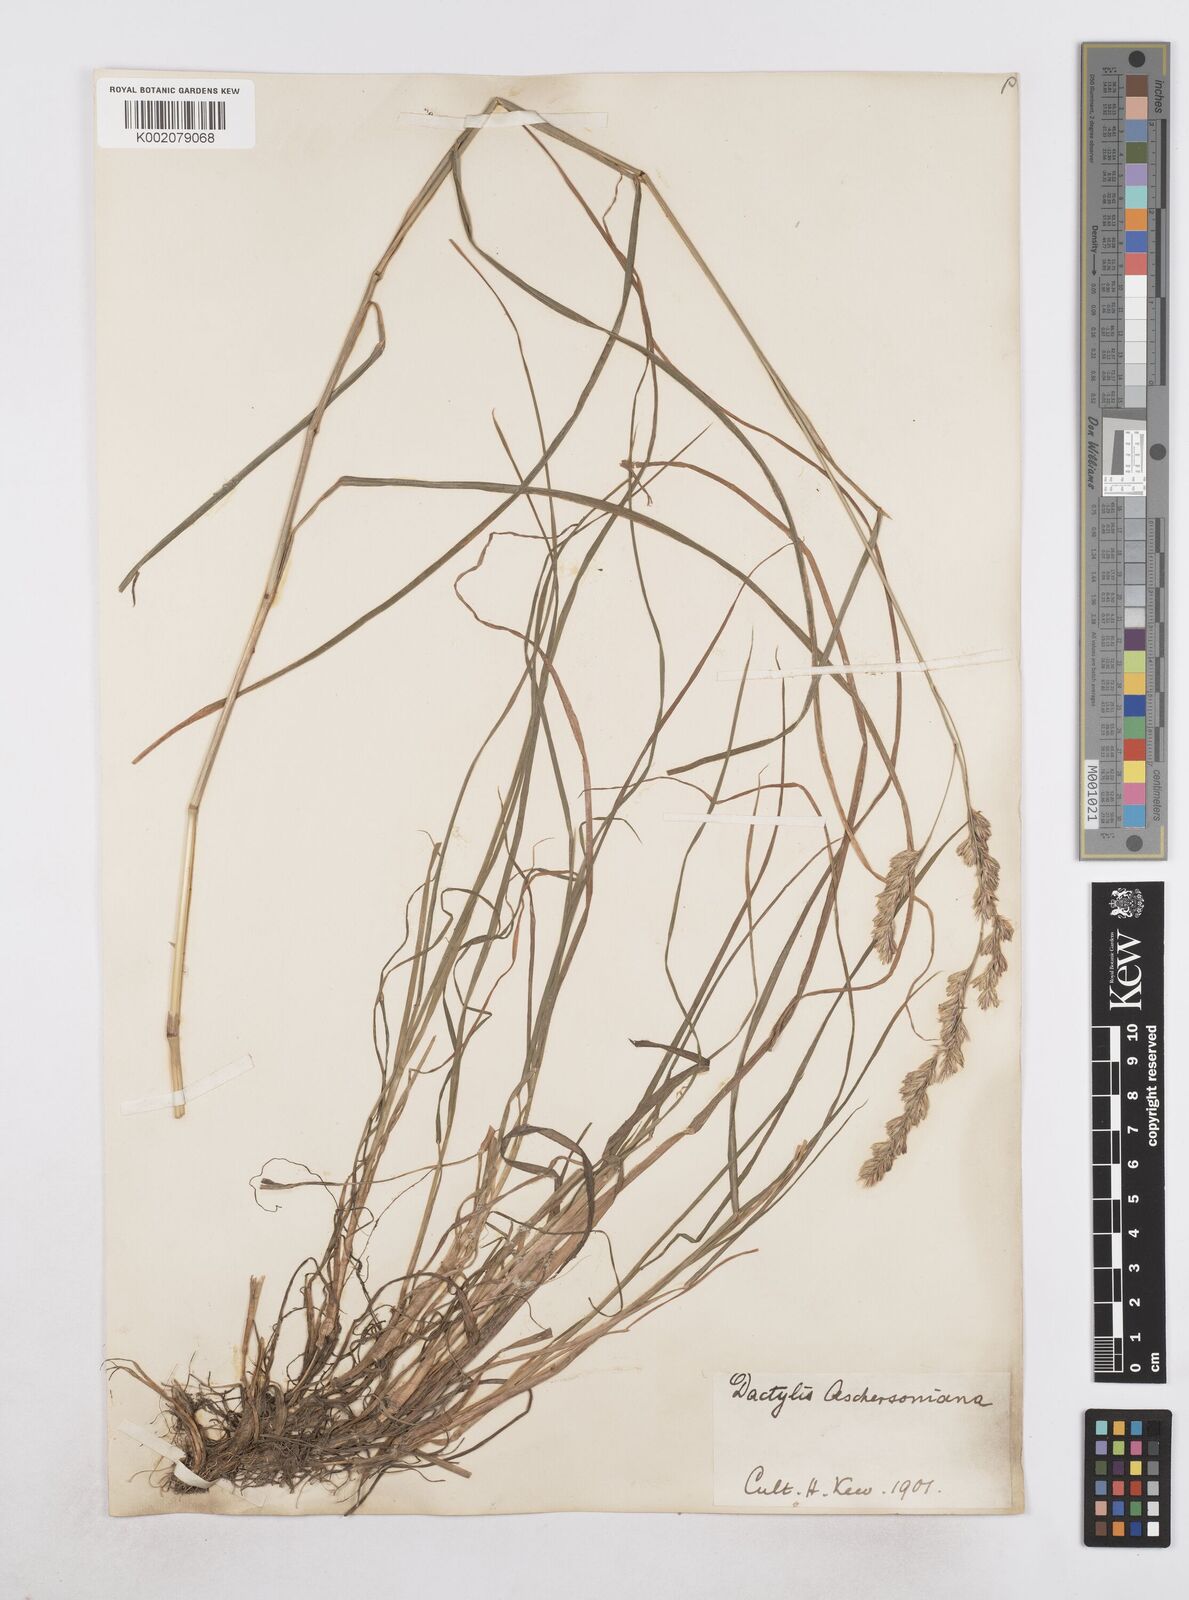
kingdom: Plantae
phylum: Tracheophyta
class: Liliopsida
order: Poales
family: Poaceae
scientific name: Poaceae
